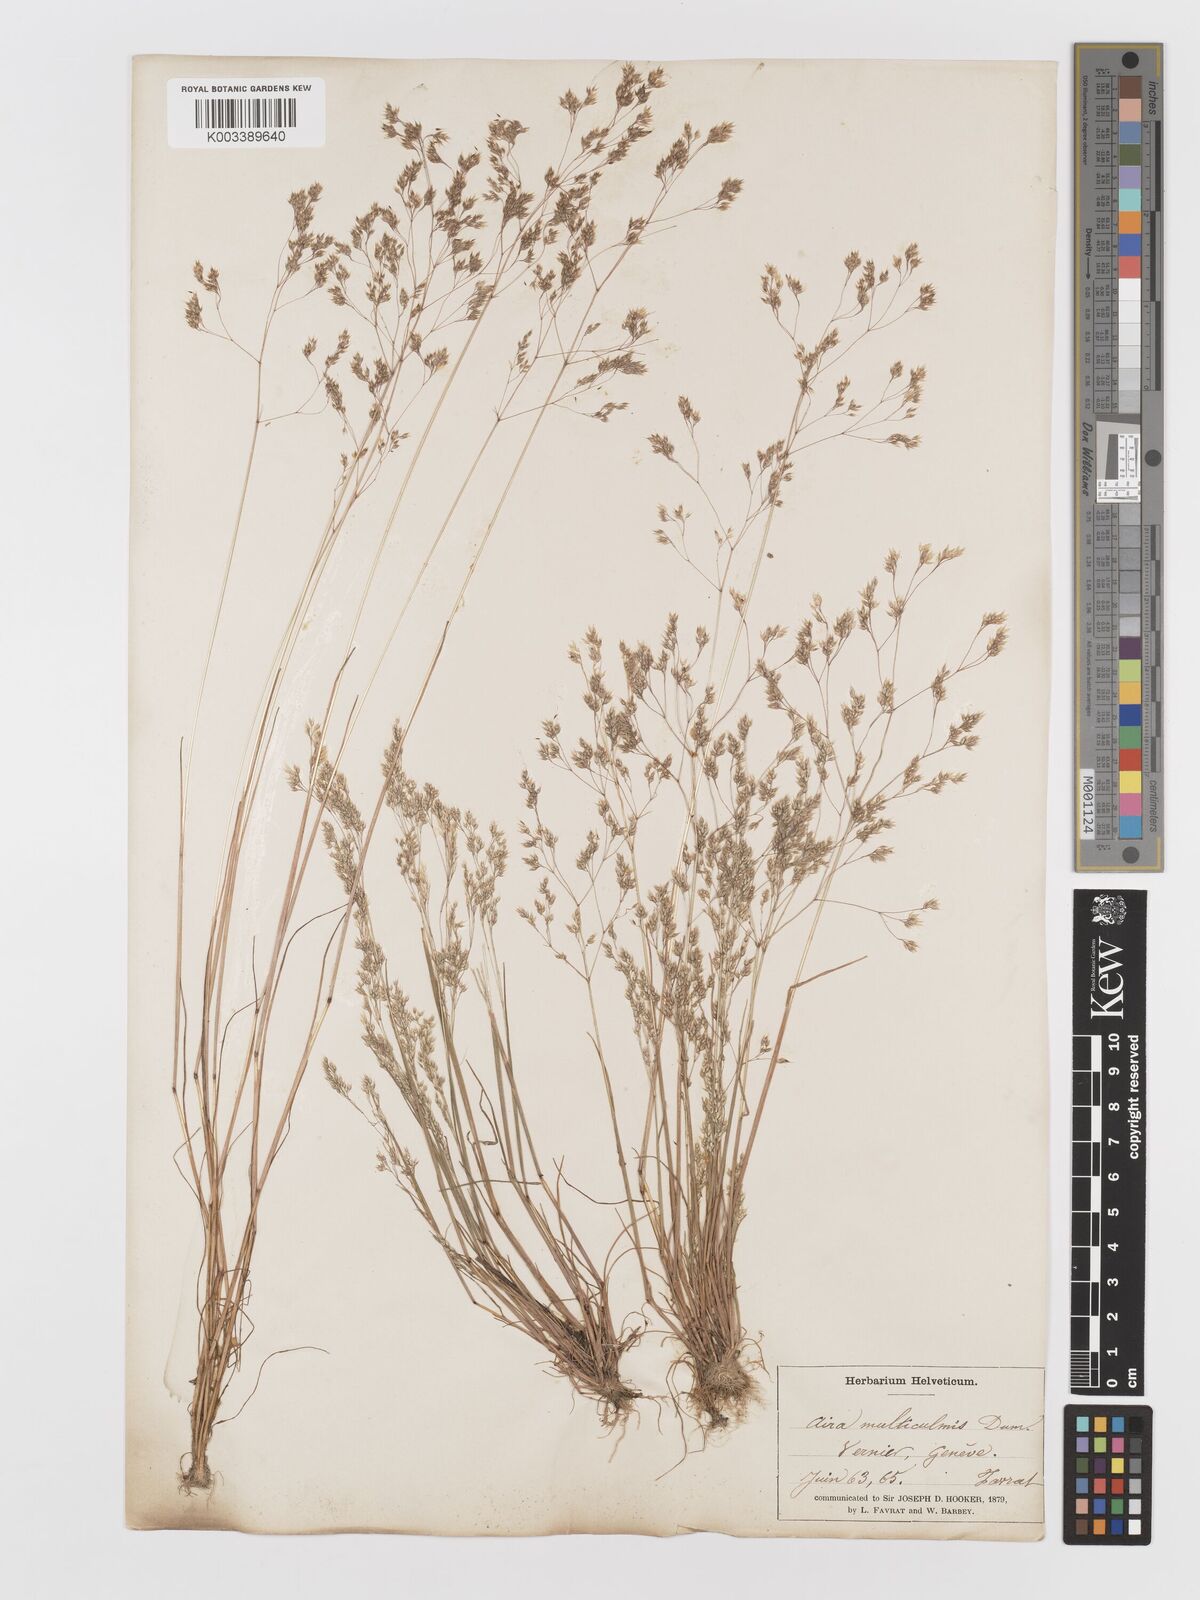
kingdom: Plantae
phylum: Tracheophyta
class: Liliopsida
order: Poales
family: Poaceae
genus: Aira
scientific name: Aira caryophyllea
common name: Silver hairgrass
